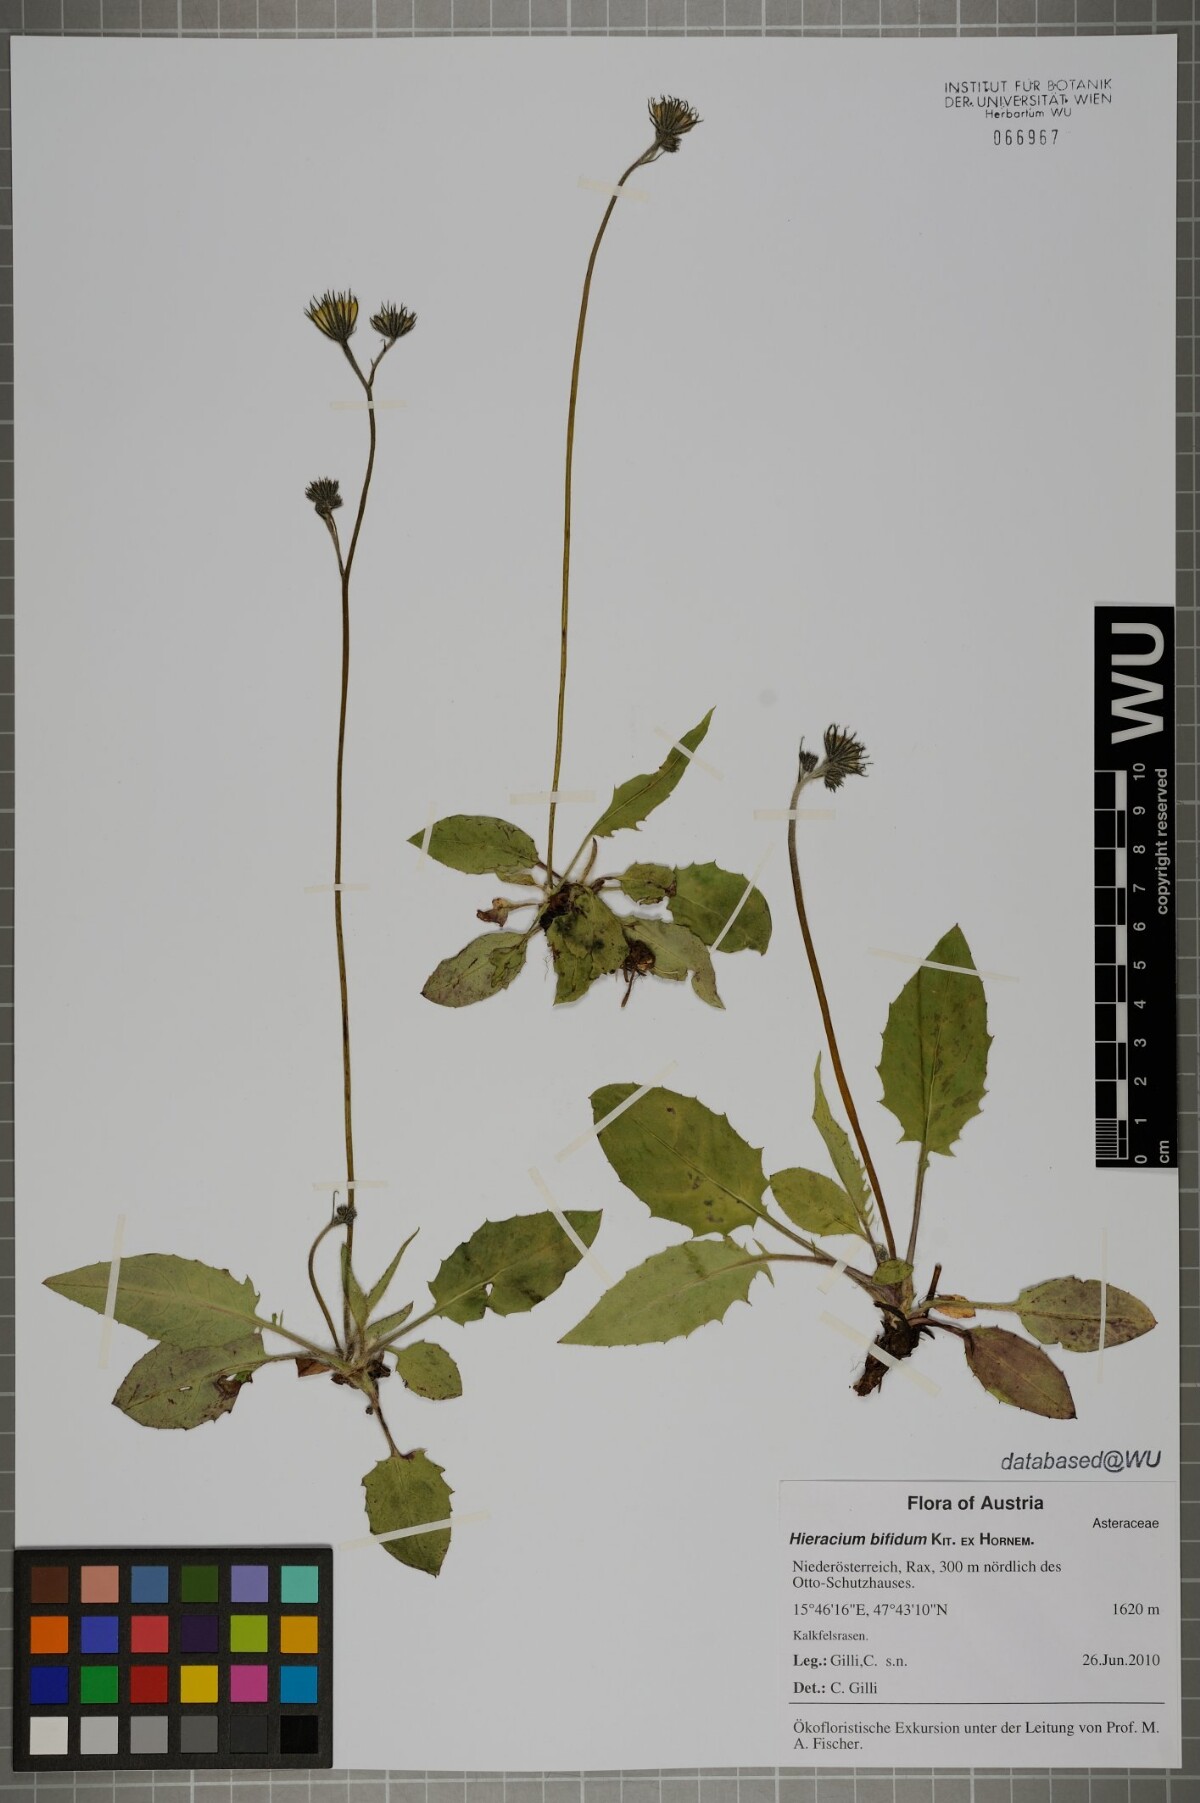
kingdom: Plantae
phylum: Tracheophyta
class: Magnoliopsida
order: Asterales
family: Asteraceae
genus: Hieracium
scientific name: Hieracium bifidum
